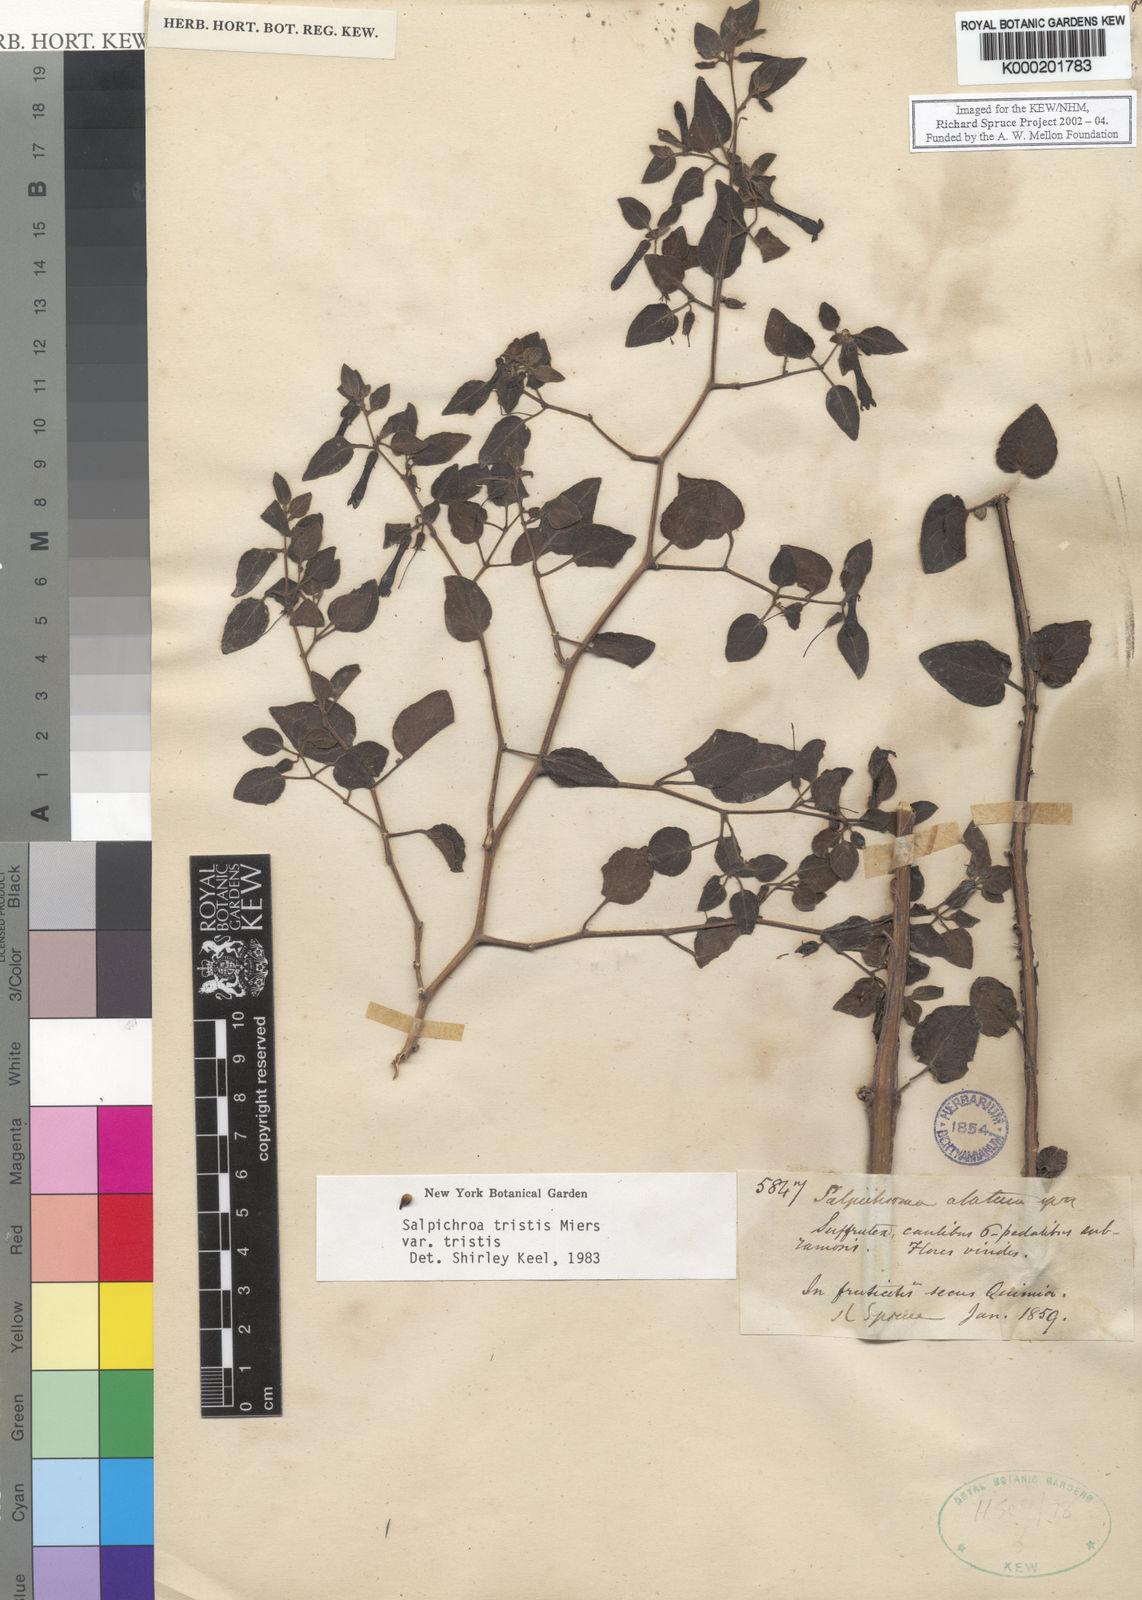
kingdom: Plantae
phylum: Tracheophyta
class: Magnoliopsida
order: Solanales
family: Solanaceae
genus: Salpichroa
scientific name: Salpichroa
